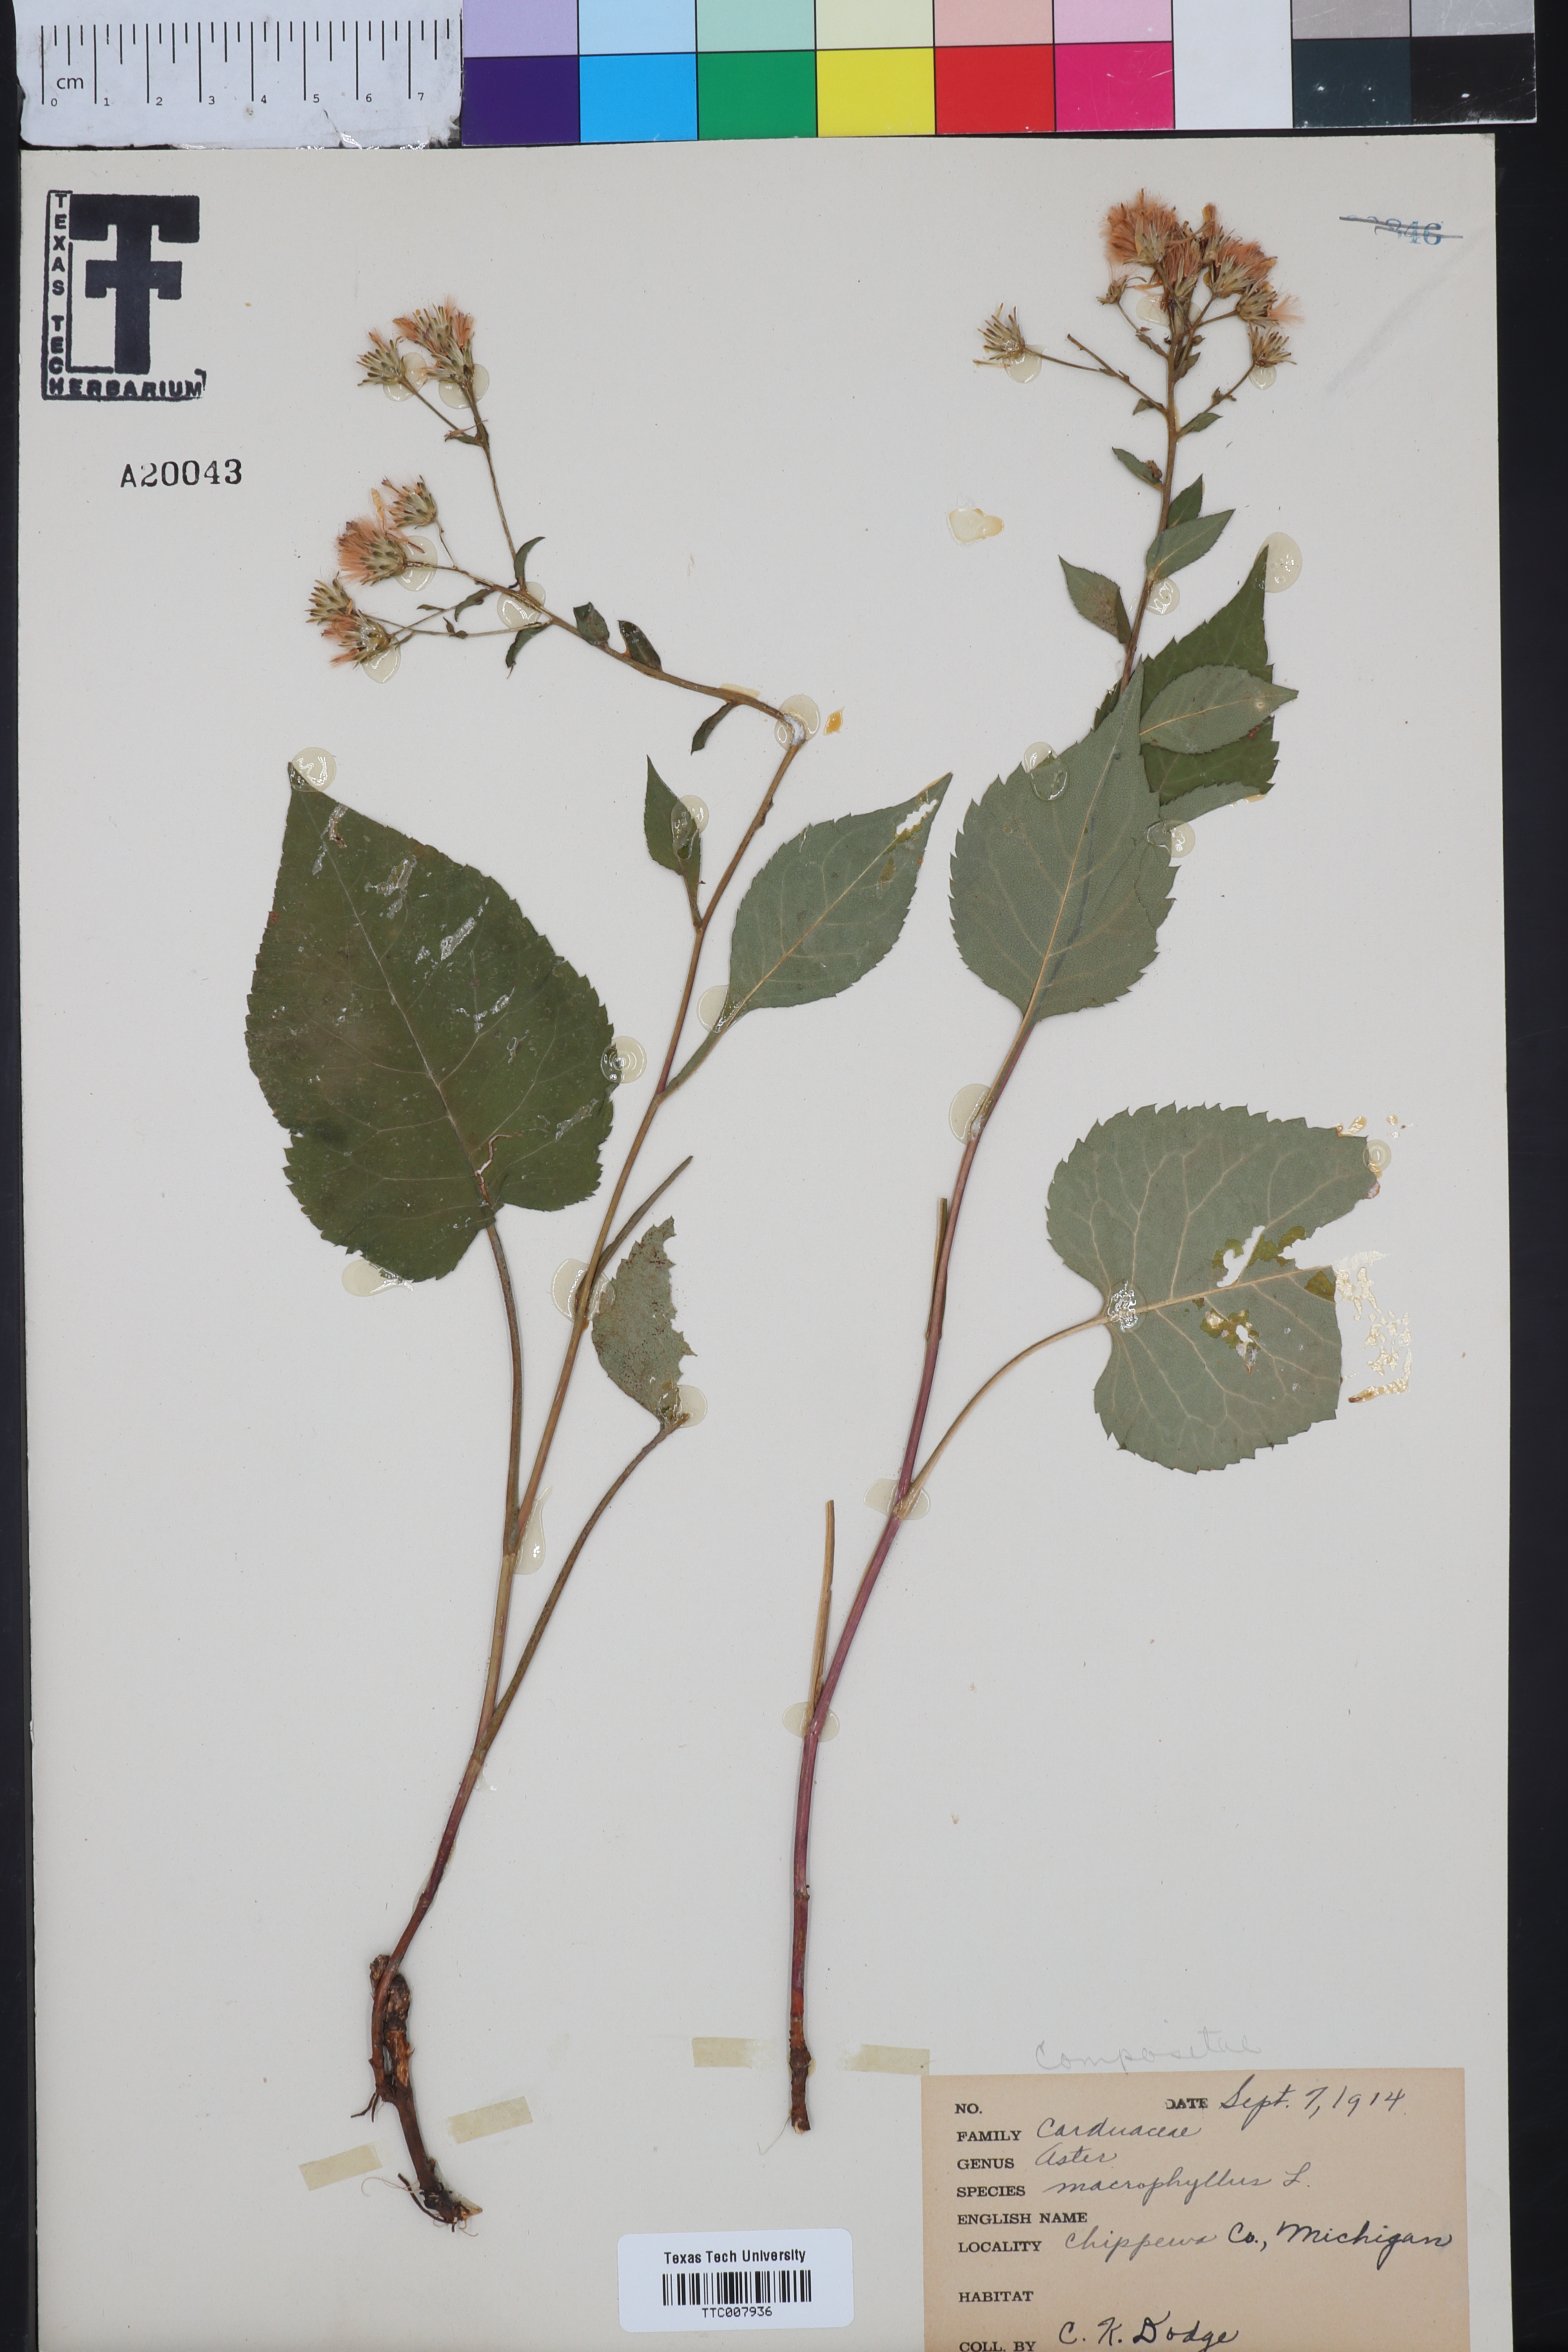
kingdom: Plantae
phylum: Tracheophyta
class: Magnoliopsida
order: Asterales
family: Asteraceae
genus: Eurybia
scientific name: Eurybia macrophylla
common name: Big-leaved aster
